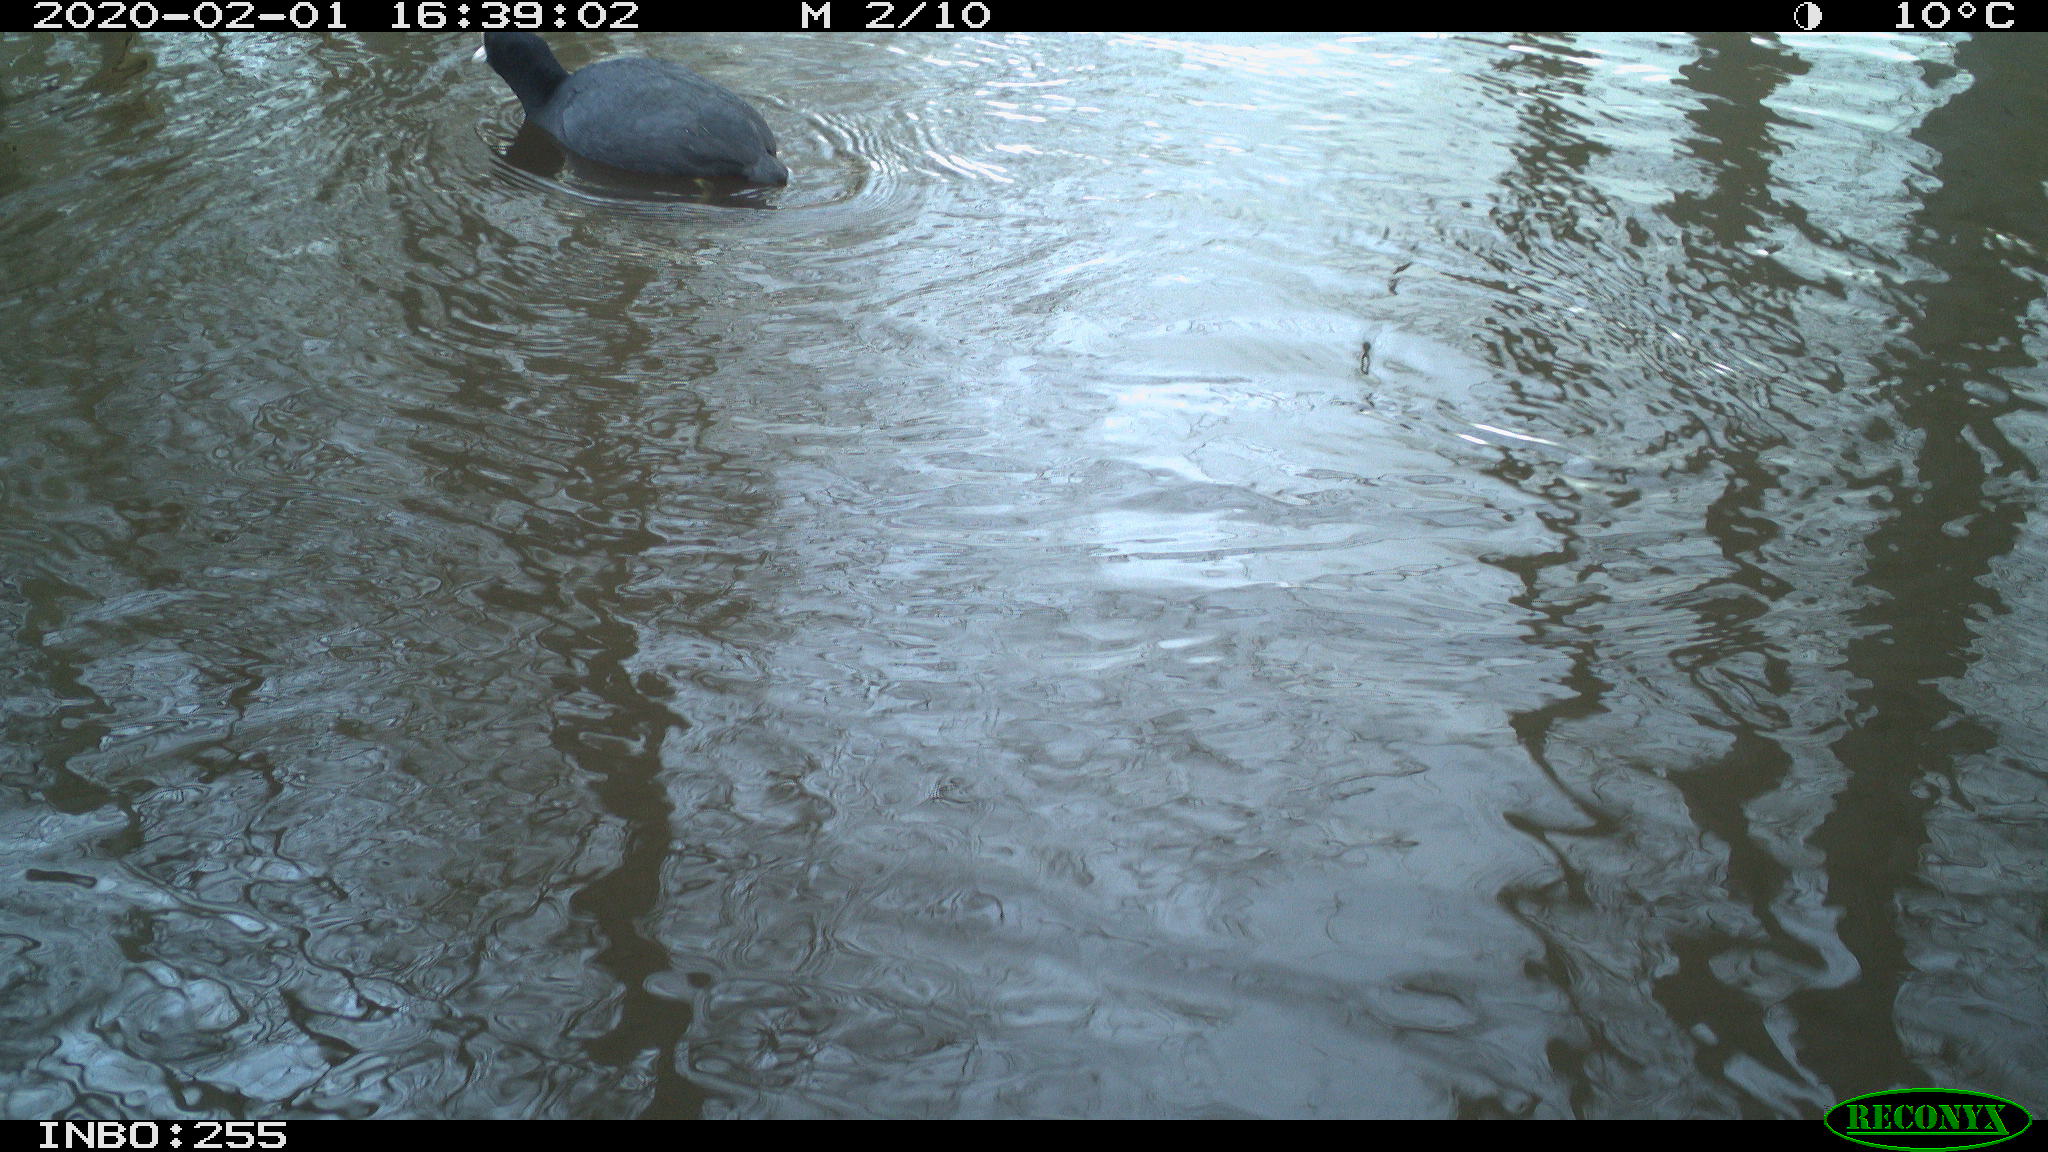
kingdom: Animalia
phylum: Chordata
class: Aves
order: Gruiformes
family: Rallidae
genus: Fulica
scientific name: Fulica atra
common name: Eurasian coot
